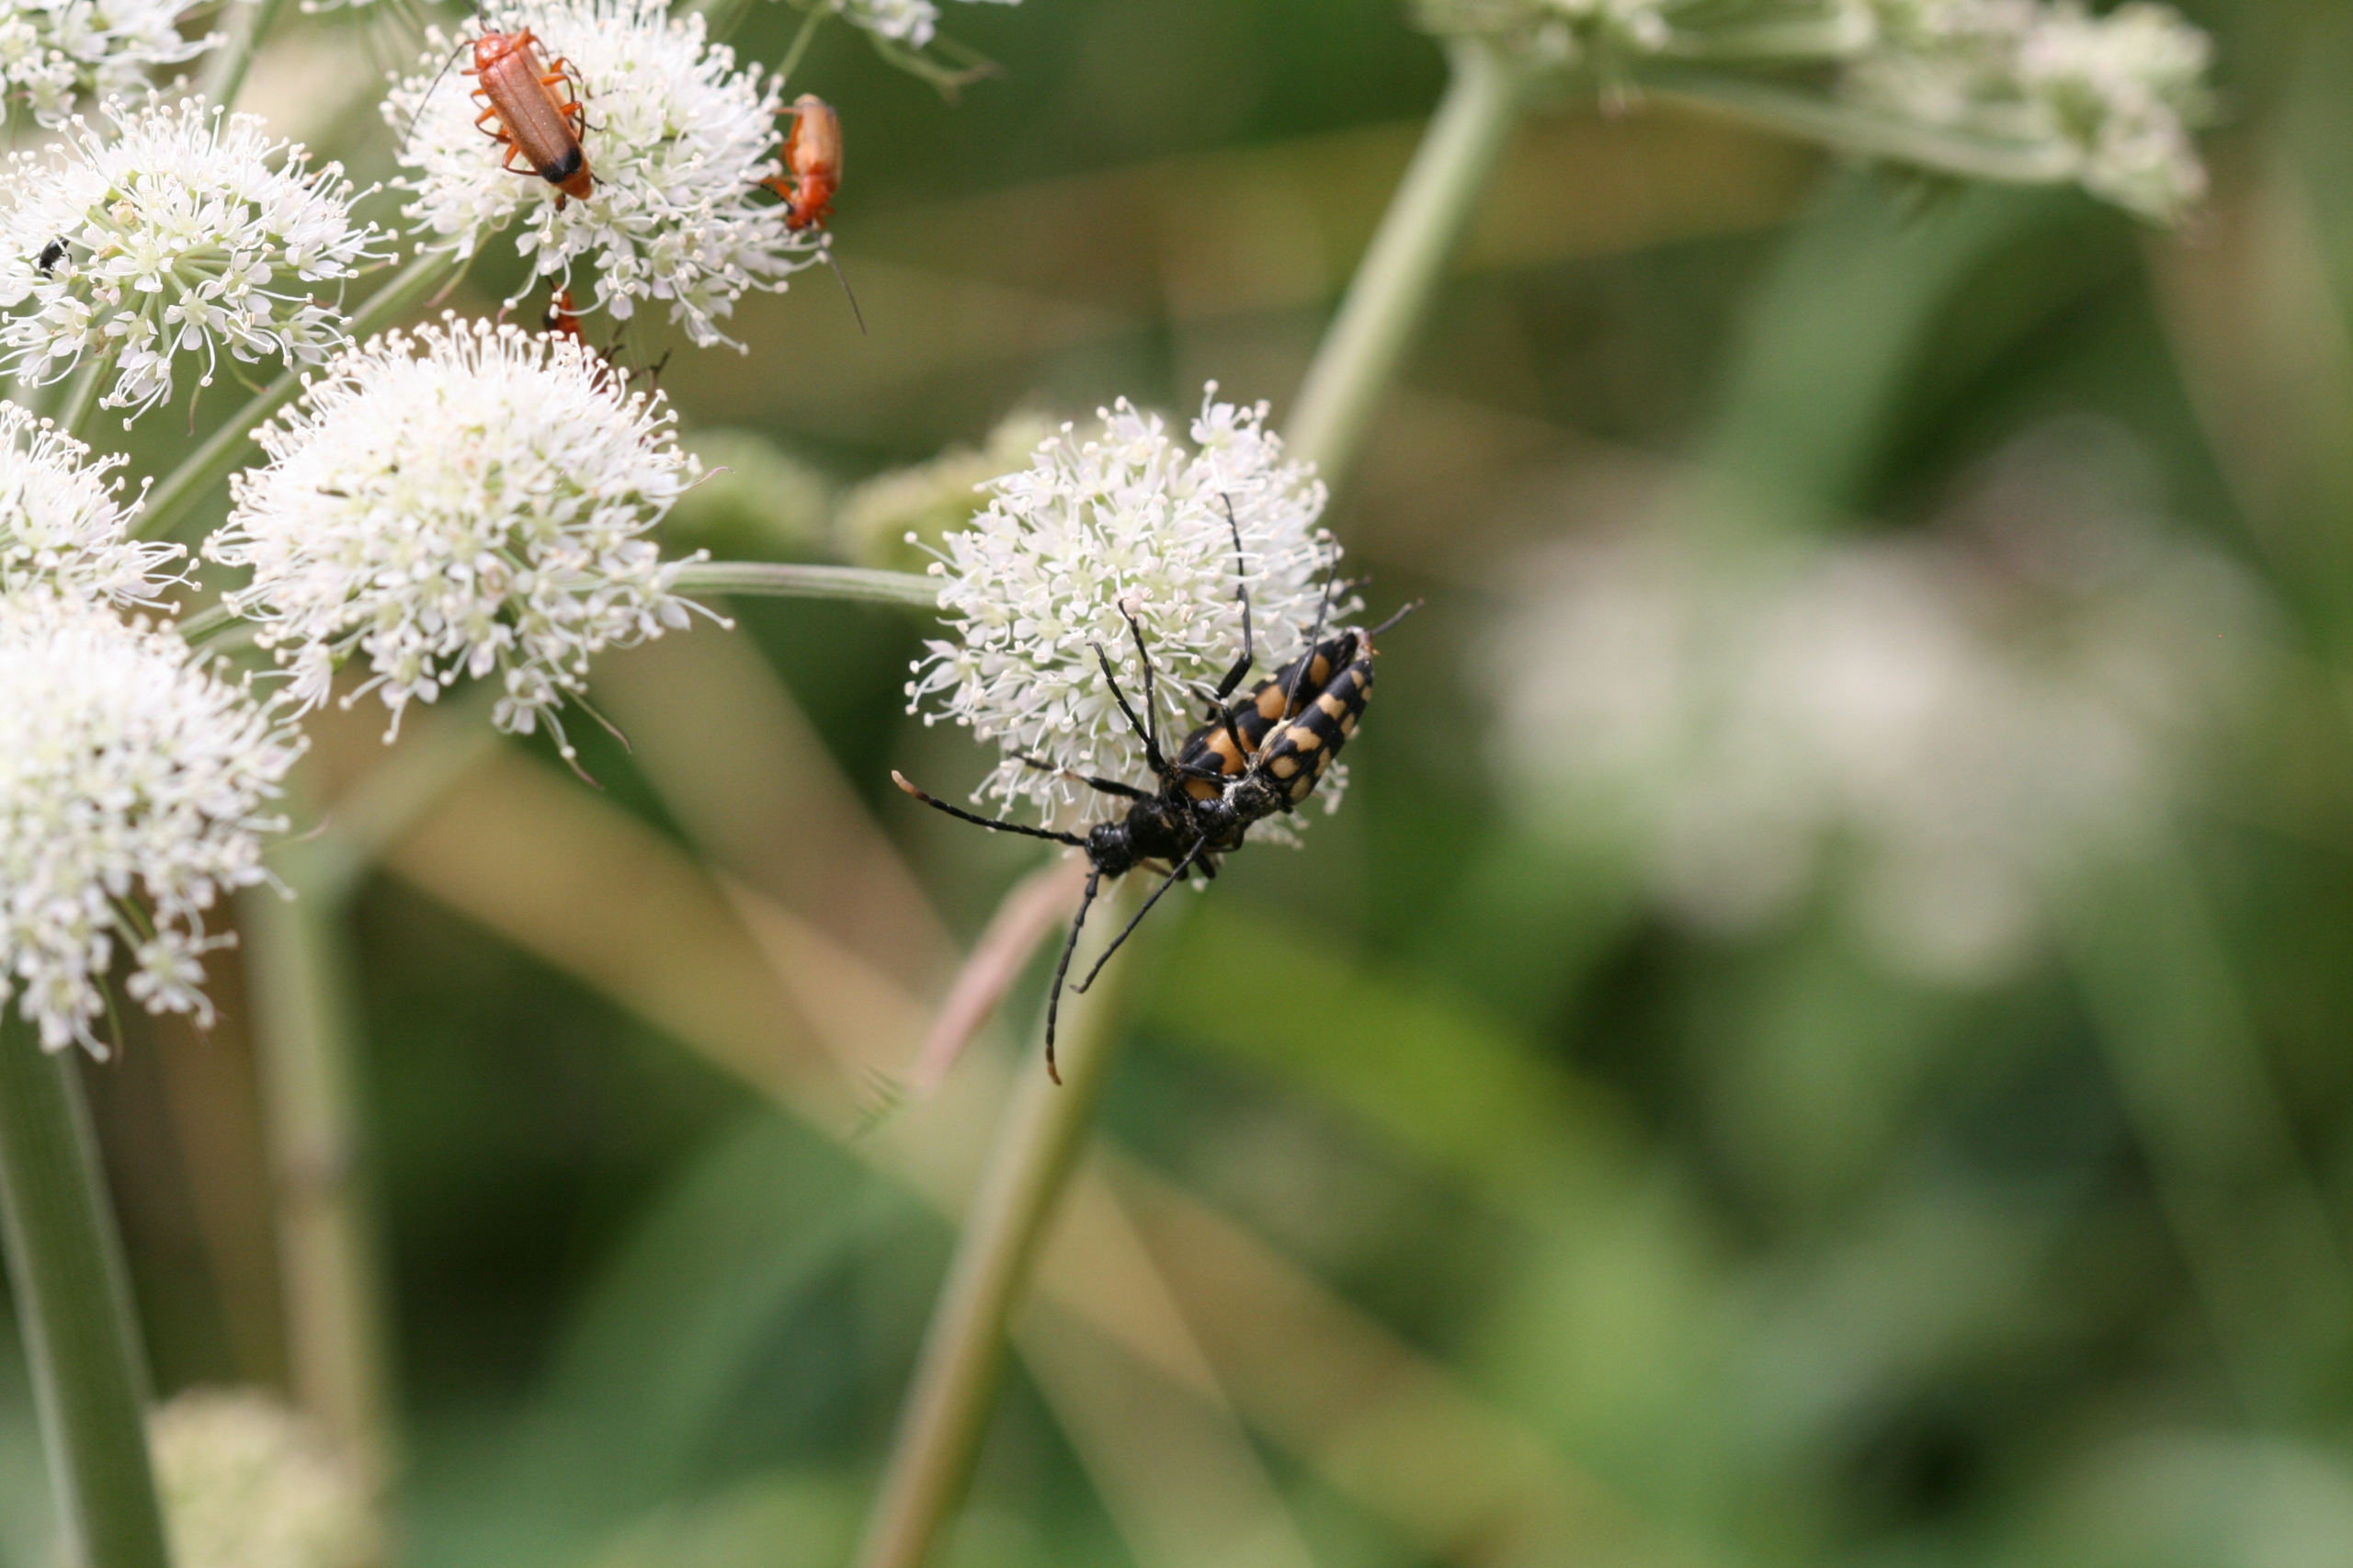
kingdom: Animalia
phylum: Arthropoda
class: Insecta
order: Coleoptera
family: Cerambycidae
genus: Leptura
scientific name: Leptura quadrifasciata
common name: Firebåndet blomsterbuk
